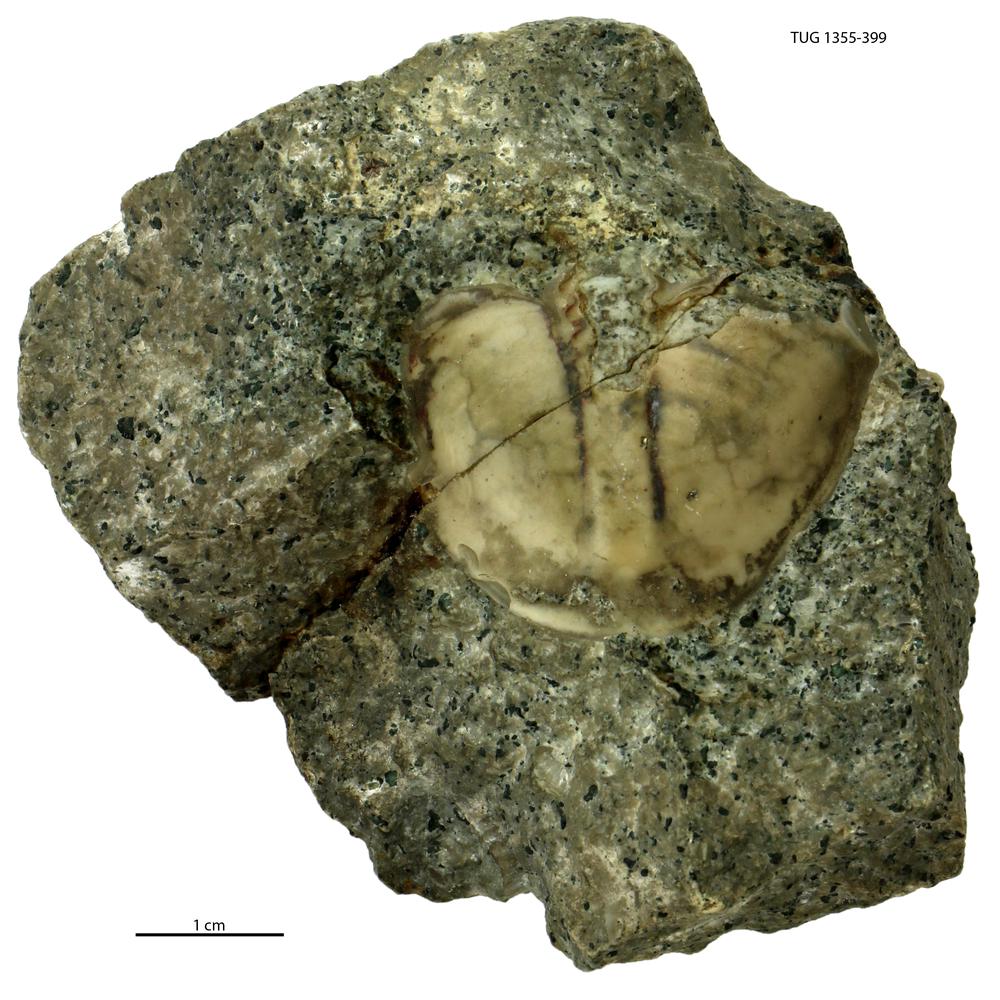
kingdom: Animalia
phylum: Arthropoda
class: Trilobita
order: Asaphida
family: Asaphidae
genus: Megistaspis
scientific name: Megistaspis
